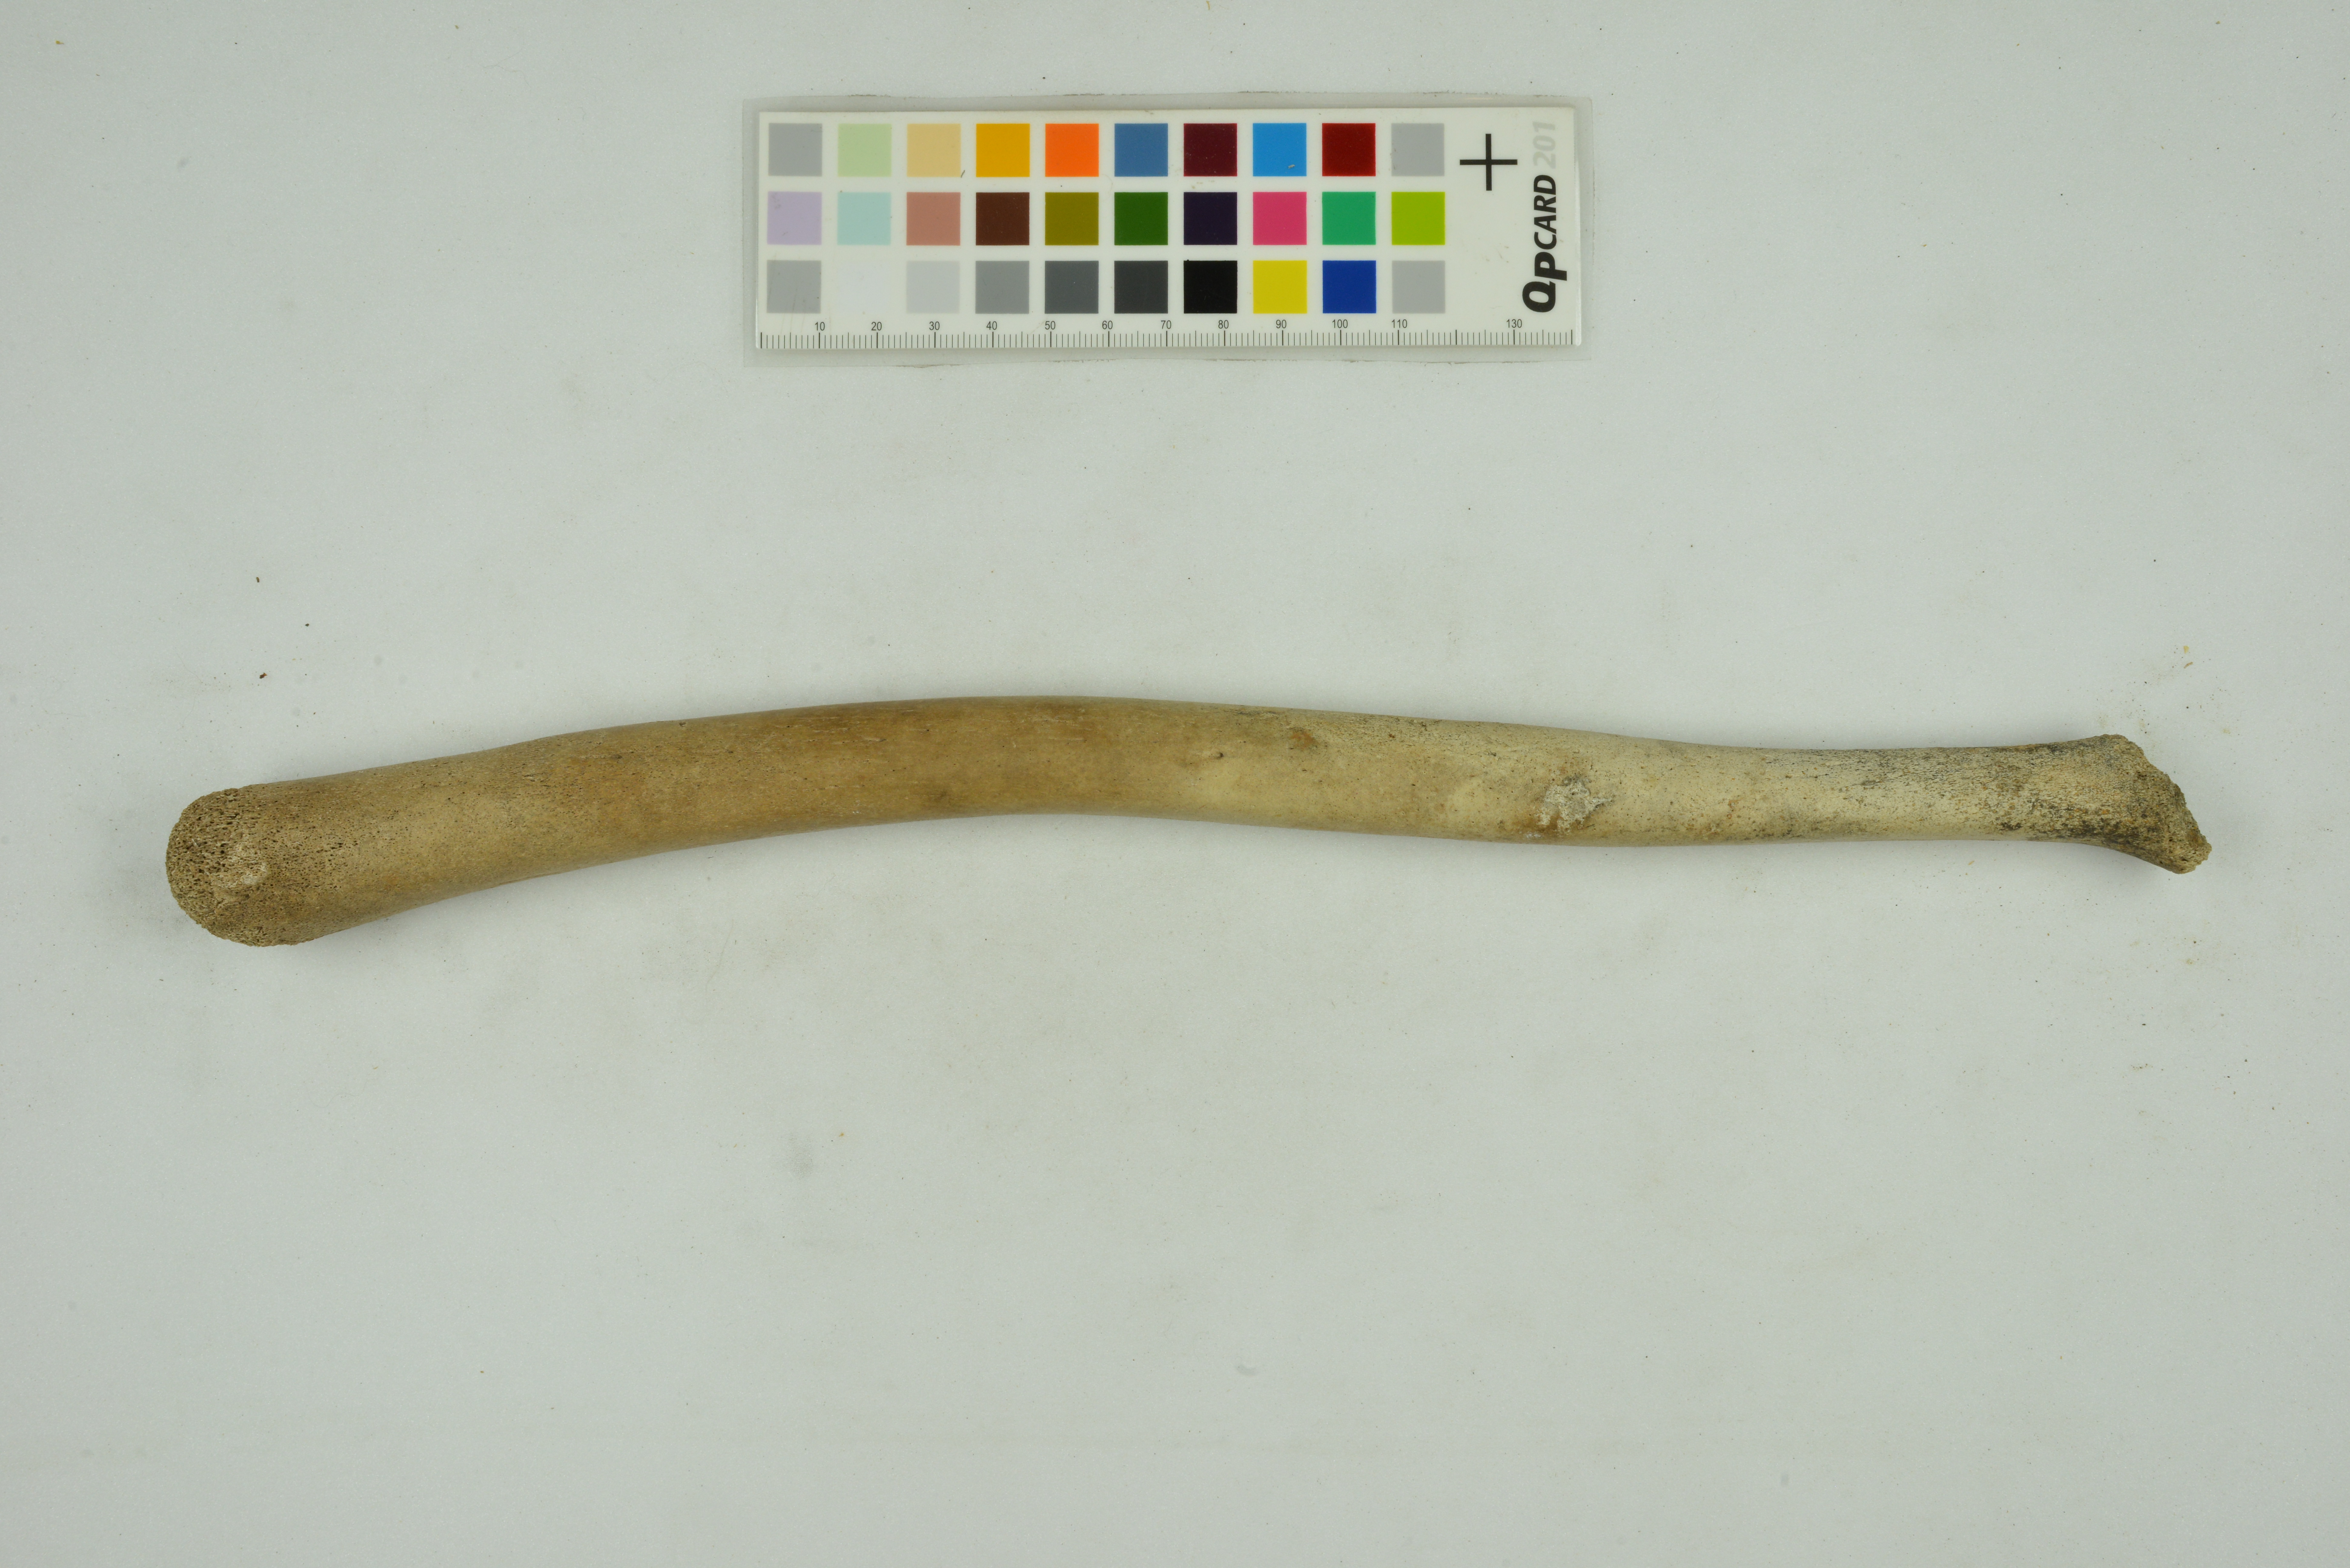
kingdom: Animalia
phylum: Chordata
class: Mammalia
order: Carnivora
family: Odobenidae
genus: Odobenus
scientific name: Odobenus rosmarus
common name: Walrus
